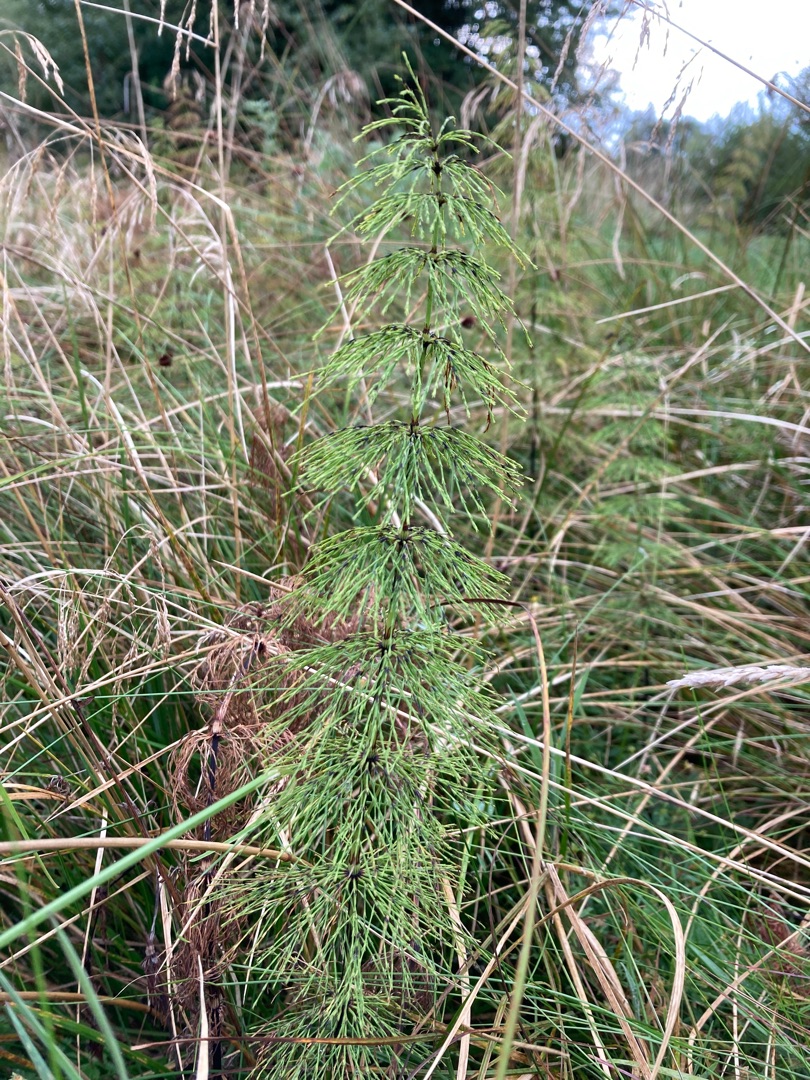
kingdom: Plantae
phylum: Tracheophyta
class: Polypodiopsida
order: Equisetales
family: Equisetaceae
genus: Equisetum
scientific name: Equisetum sylvaticum
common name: Skov-padderok
